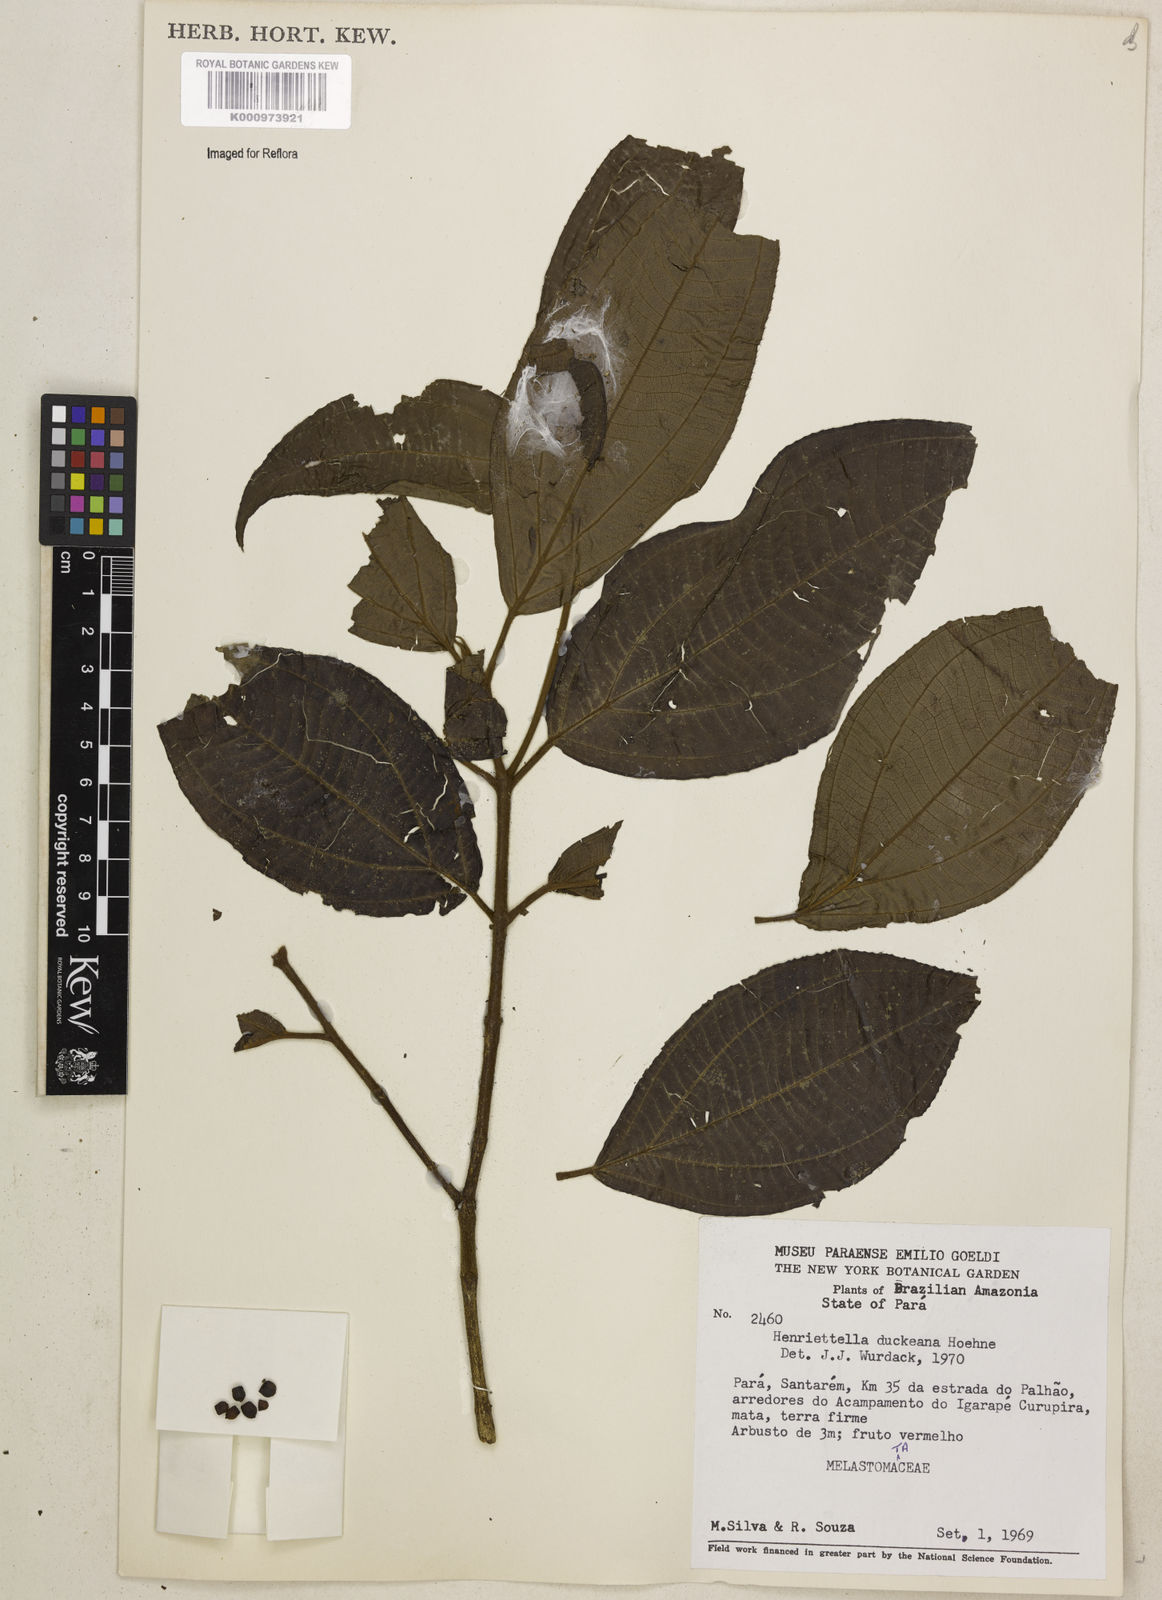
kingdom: Plantae
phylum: Tracheophyta
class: Magnoliopsida
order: Myrtales
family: Melastomataceae
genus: Henriettea
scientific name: Henriettea
